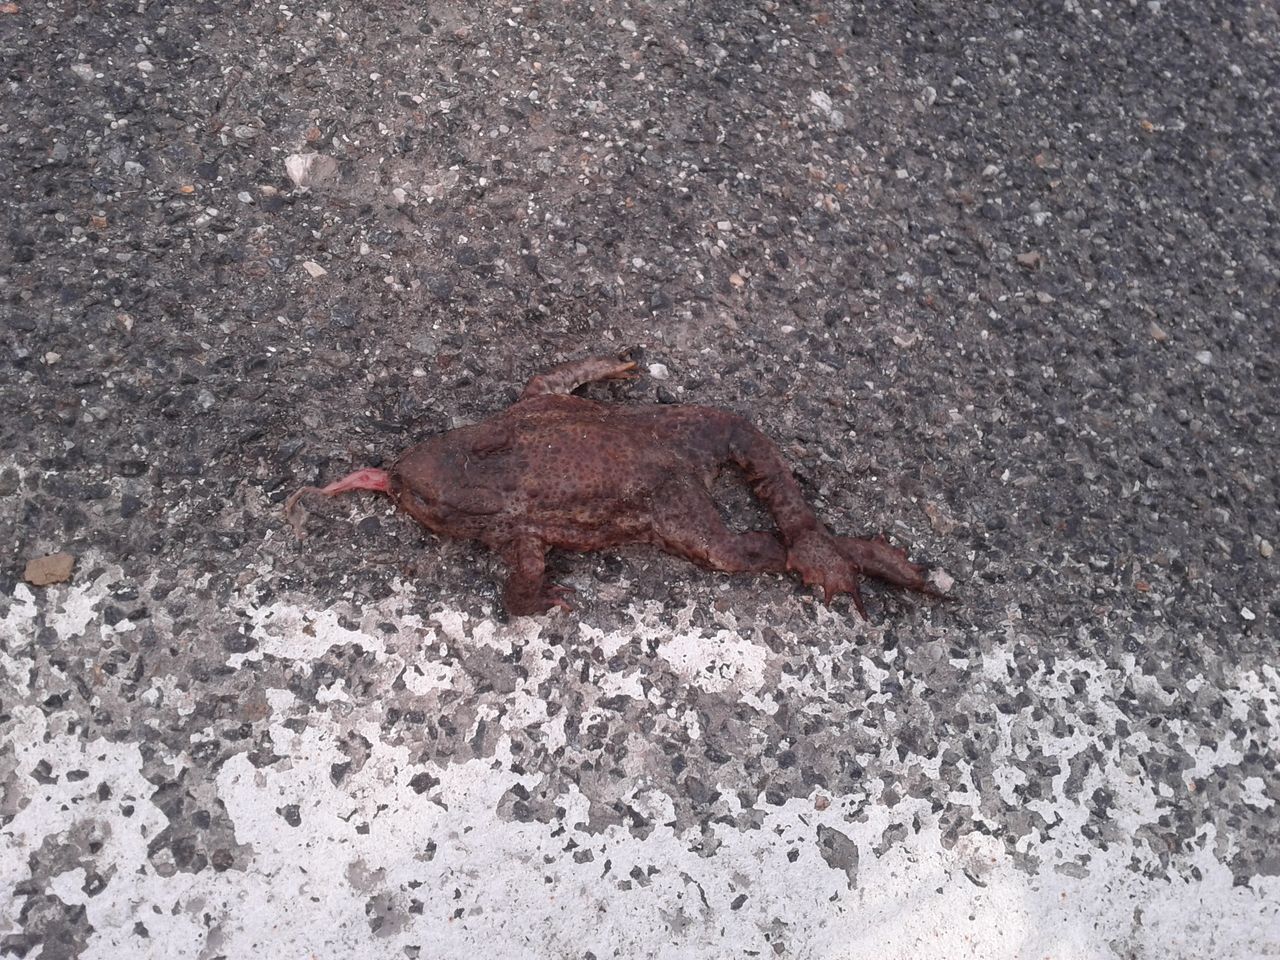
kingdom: Animalia
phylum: Chordata
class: Amphibia
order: Anura
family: Bufonidae
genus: Bufo
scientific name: Bufo bufo
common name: Common toad
